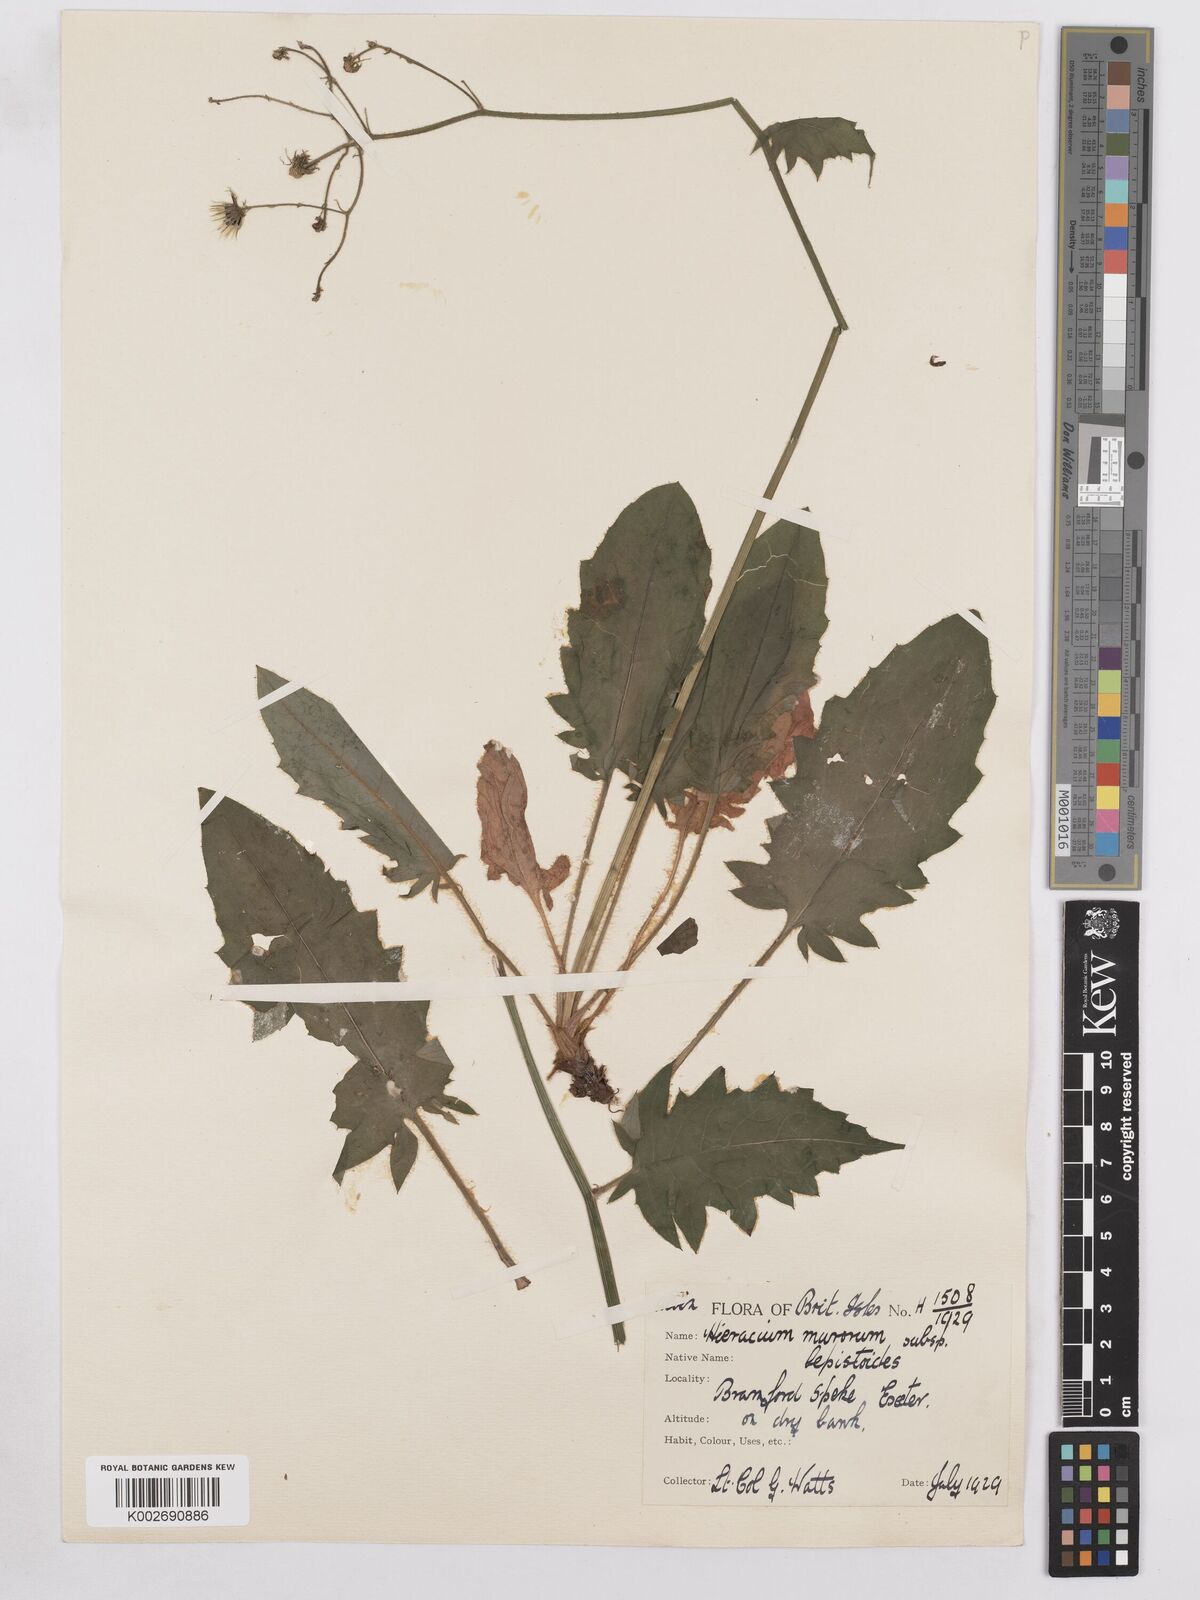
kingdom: Plantae
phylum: Tracheophyta
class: Magnoliopsida
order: Asterales
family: Asteraceae
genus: Hieracium
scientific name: Hieracium murorum
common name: Wall hawkweed
